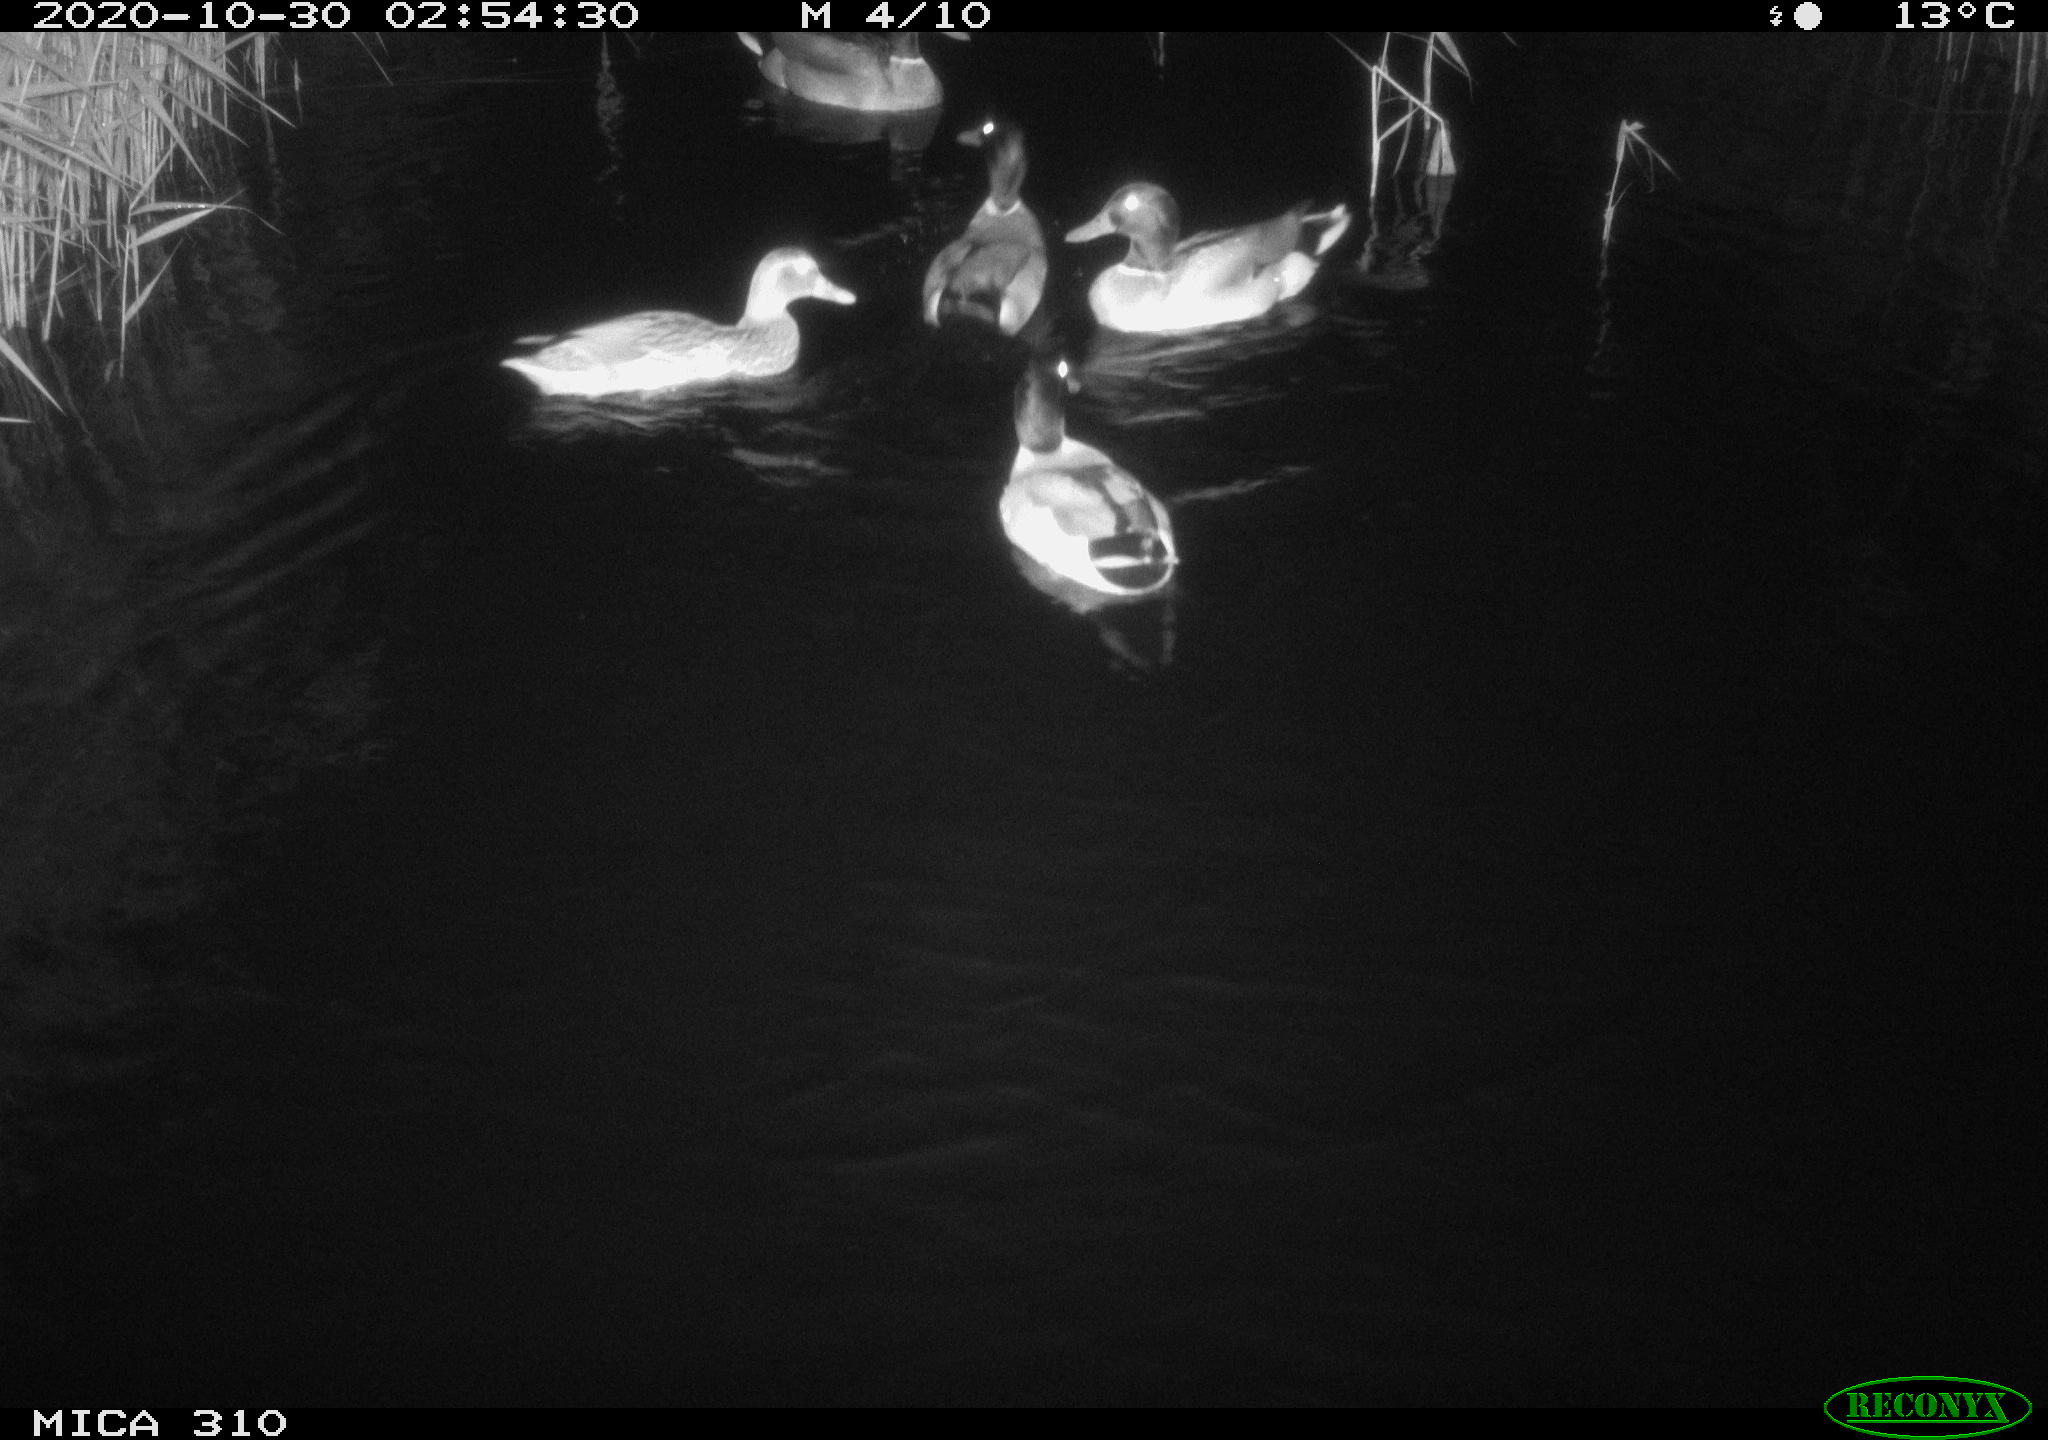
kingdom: Animalia
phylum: Chordata
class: Aves
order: Anseriformes
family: Anatidae
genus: Anas
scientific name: Anas platyrhynchos
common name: Mallard
